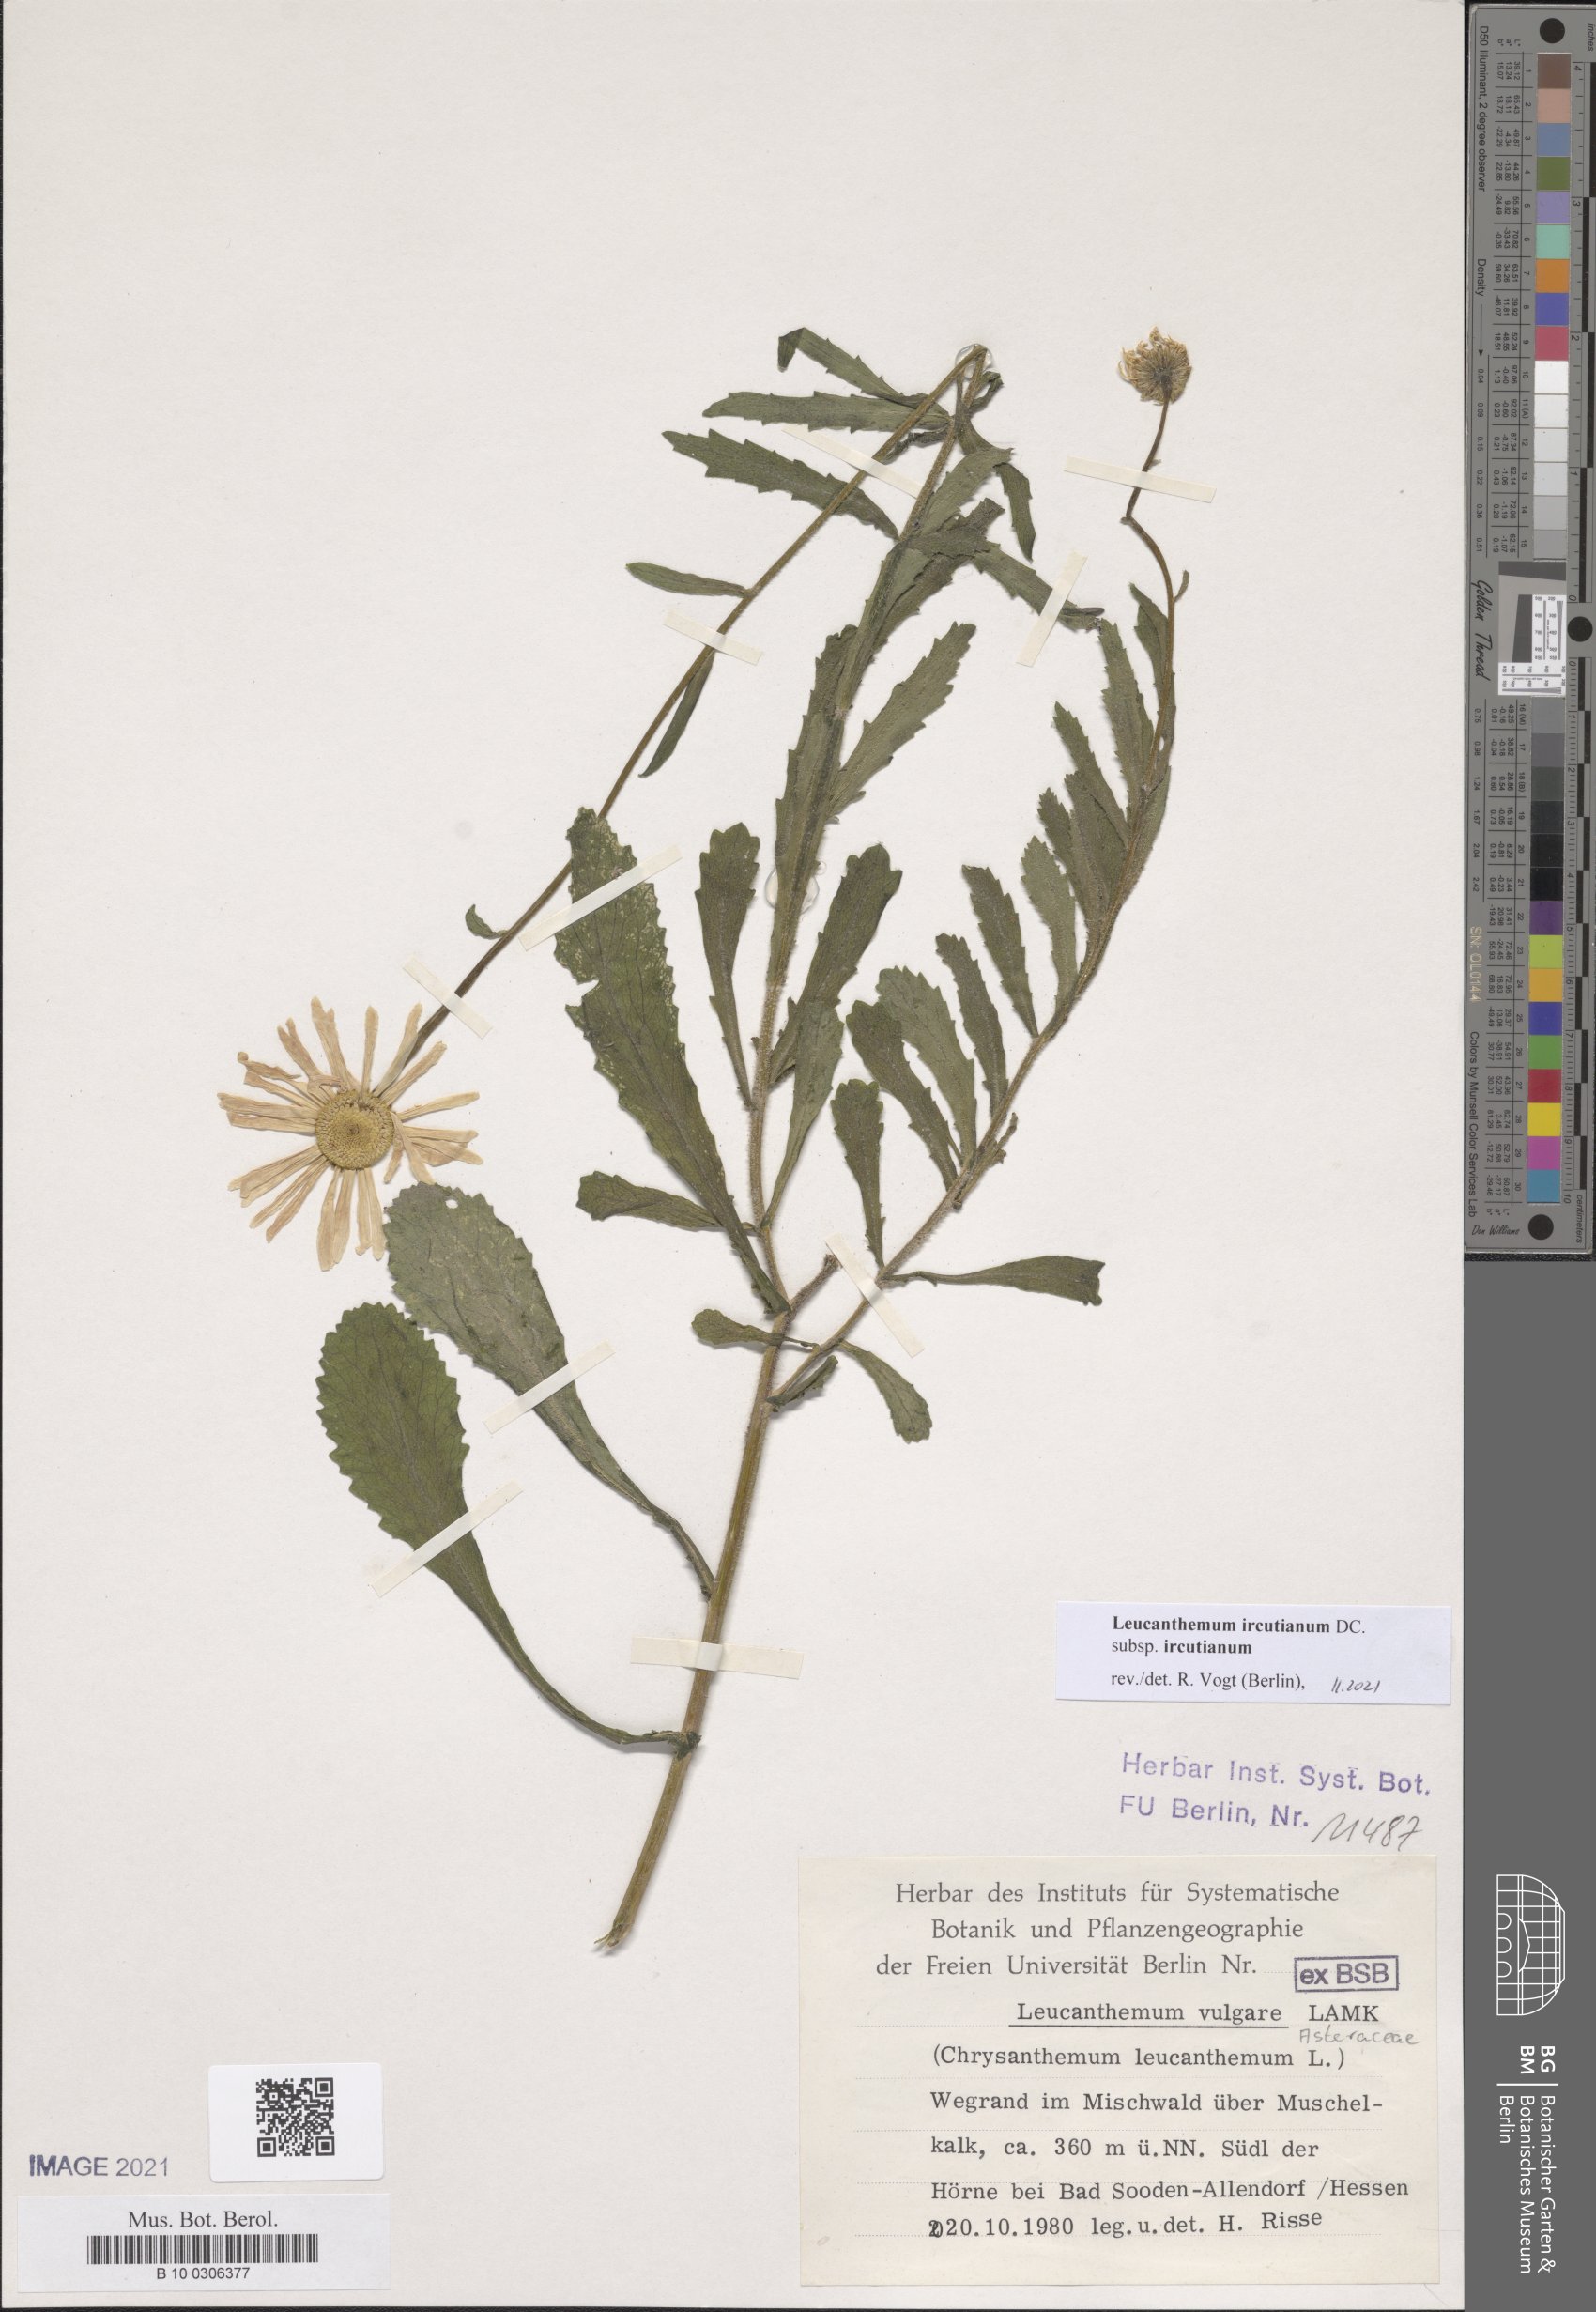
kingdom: Plantae
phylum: Tracheophyta
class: Magnoliopsida
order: Asterales
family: Asteraceae
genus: Leucanthemum
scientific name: Leucanthemum ircutianum
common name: Daisy
